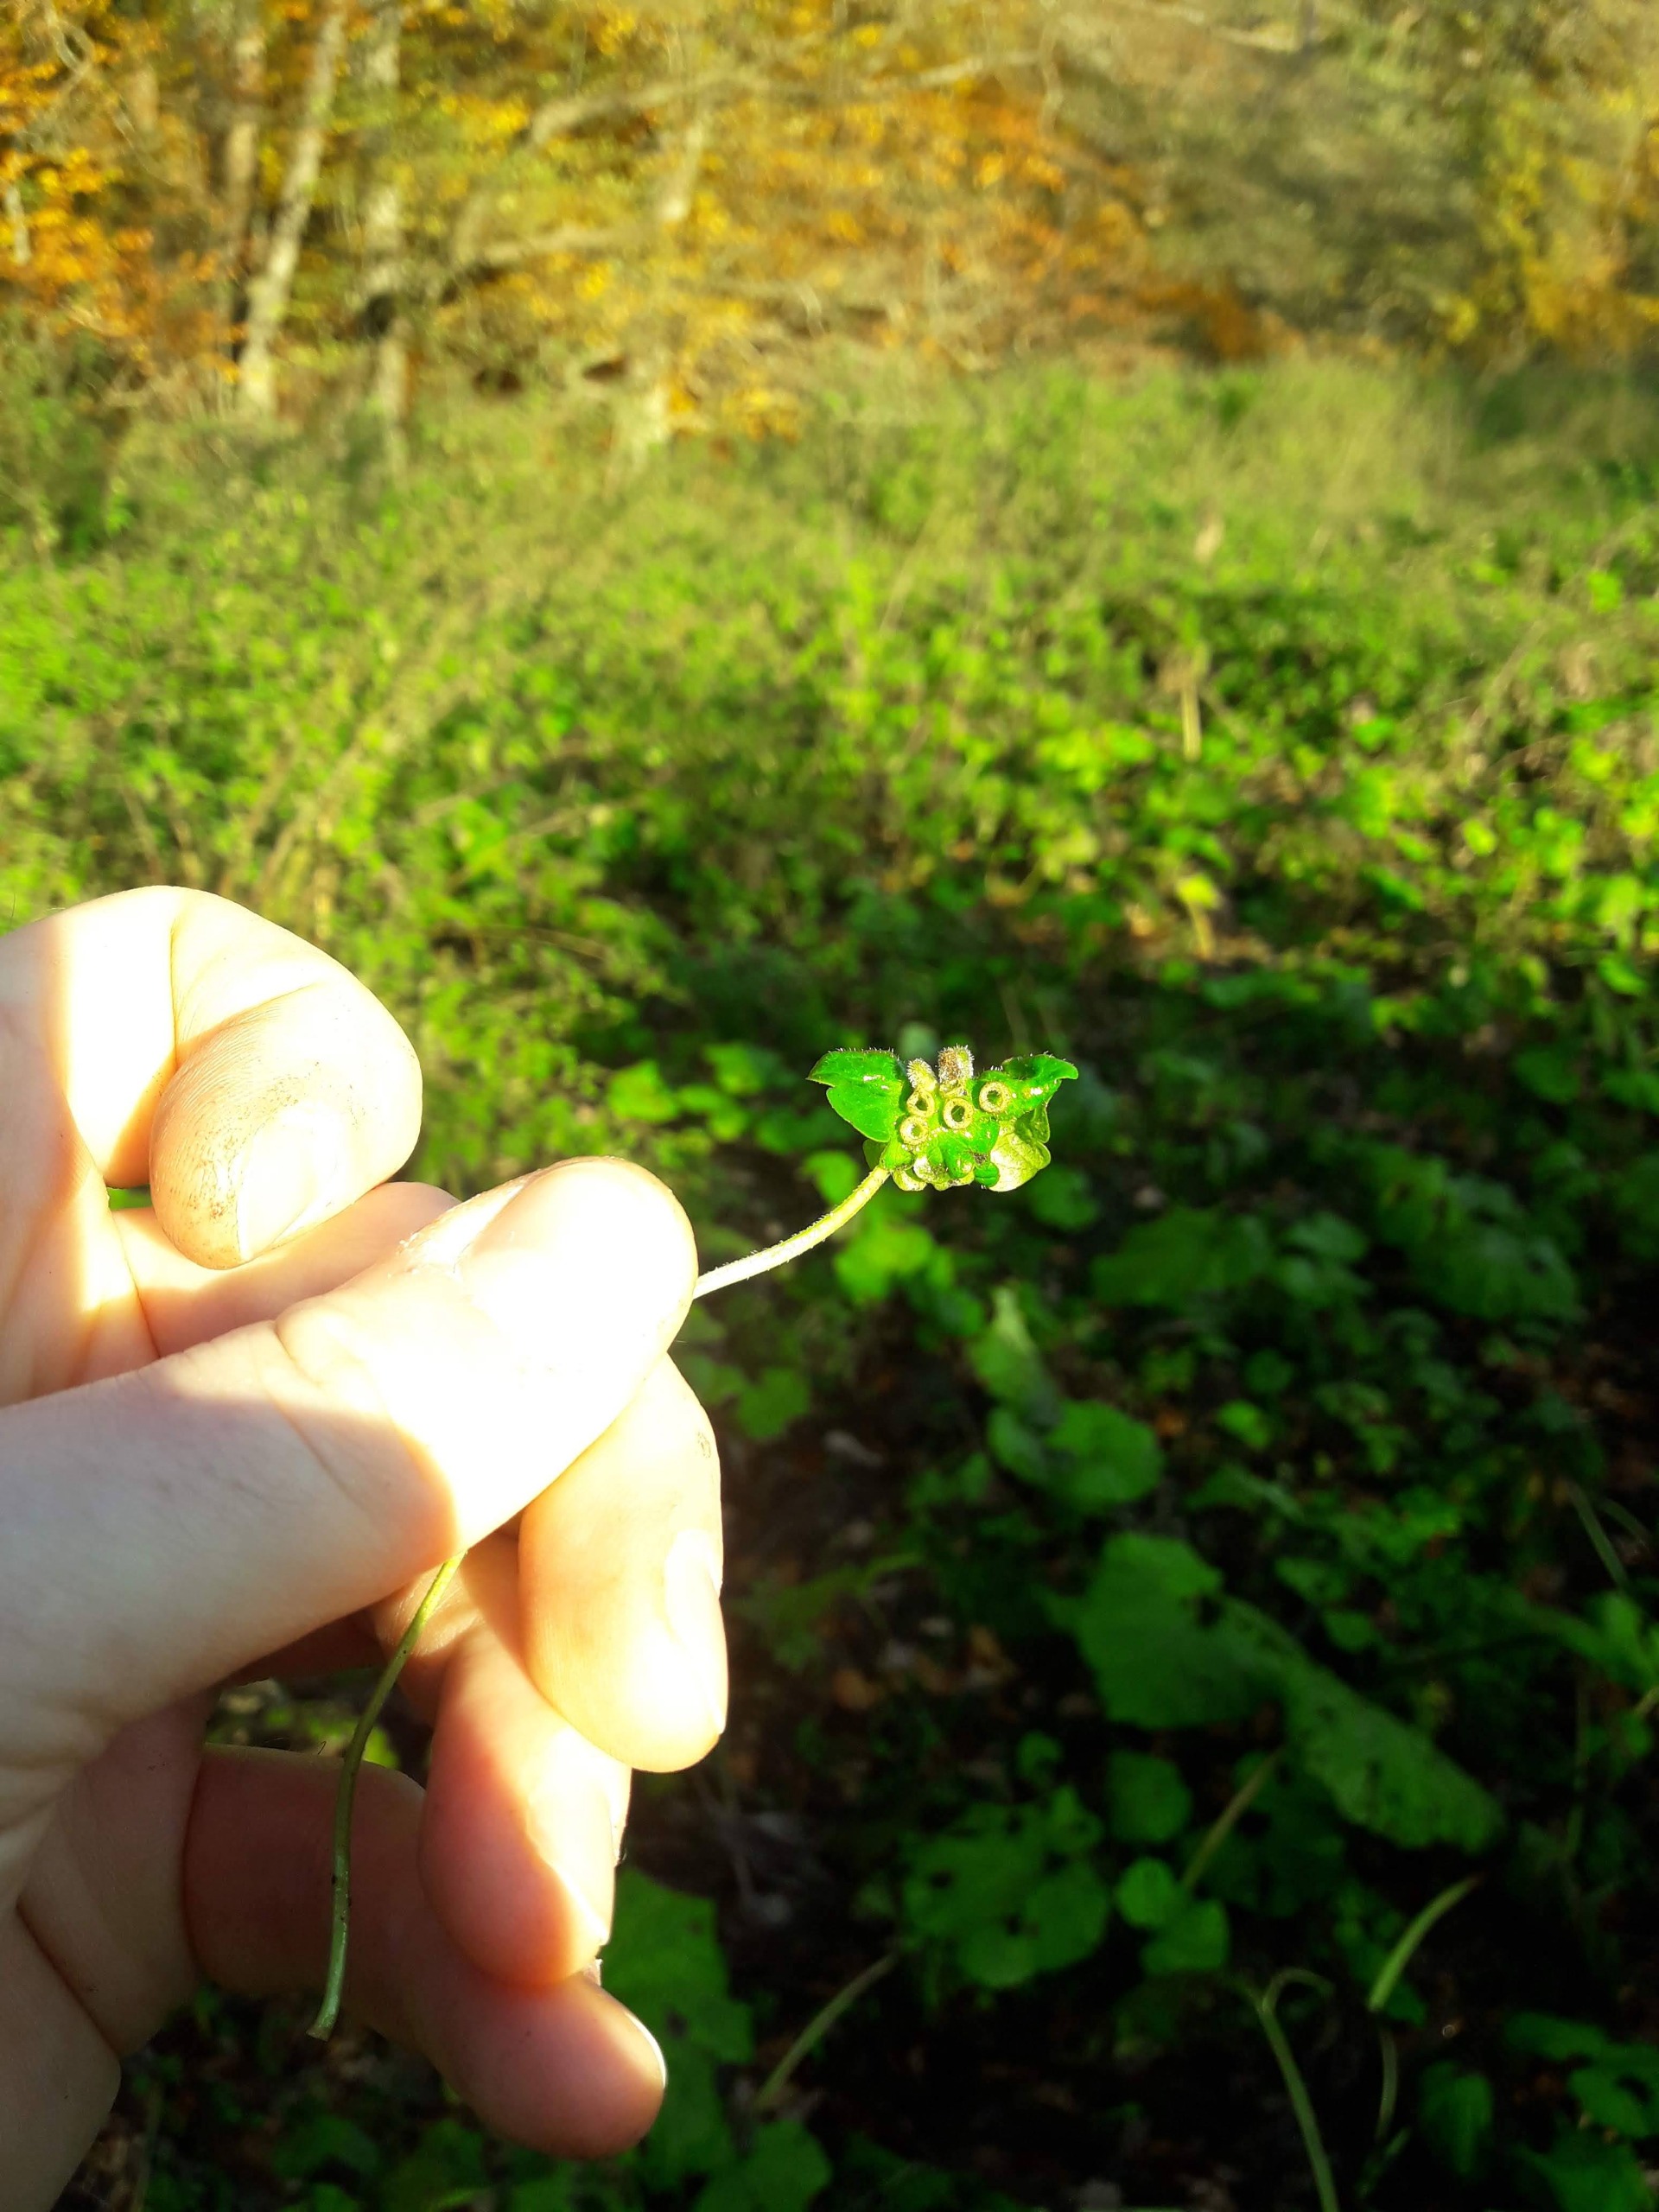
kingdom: Animalia
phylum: Arthropoda
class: Insecta
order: Diptera
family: Cecidomyiidae
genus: Rondaniola
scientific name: Rondaniola bursaria
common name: Hattifnatgalmyg
